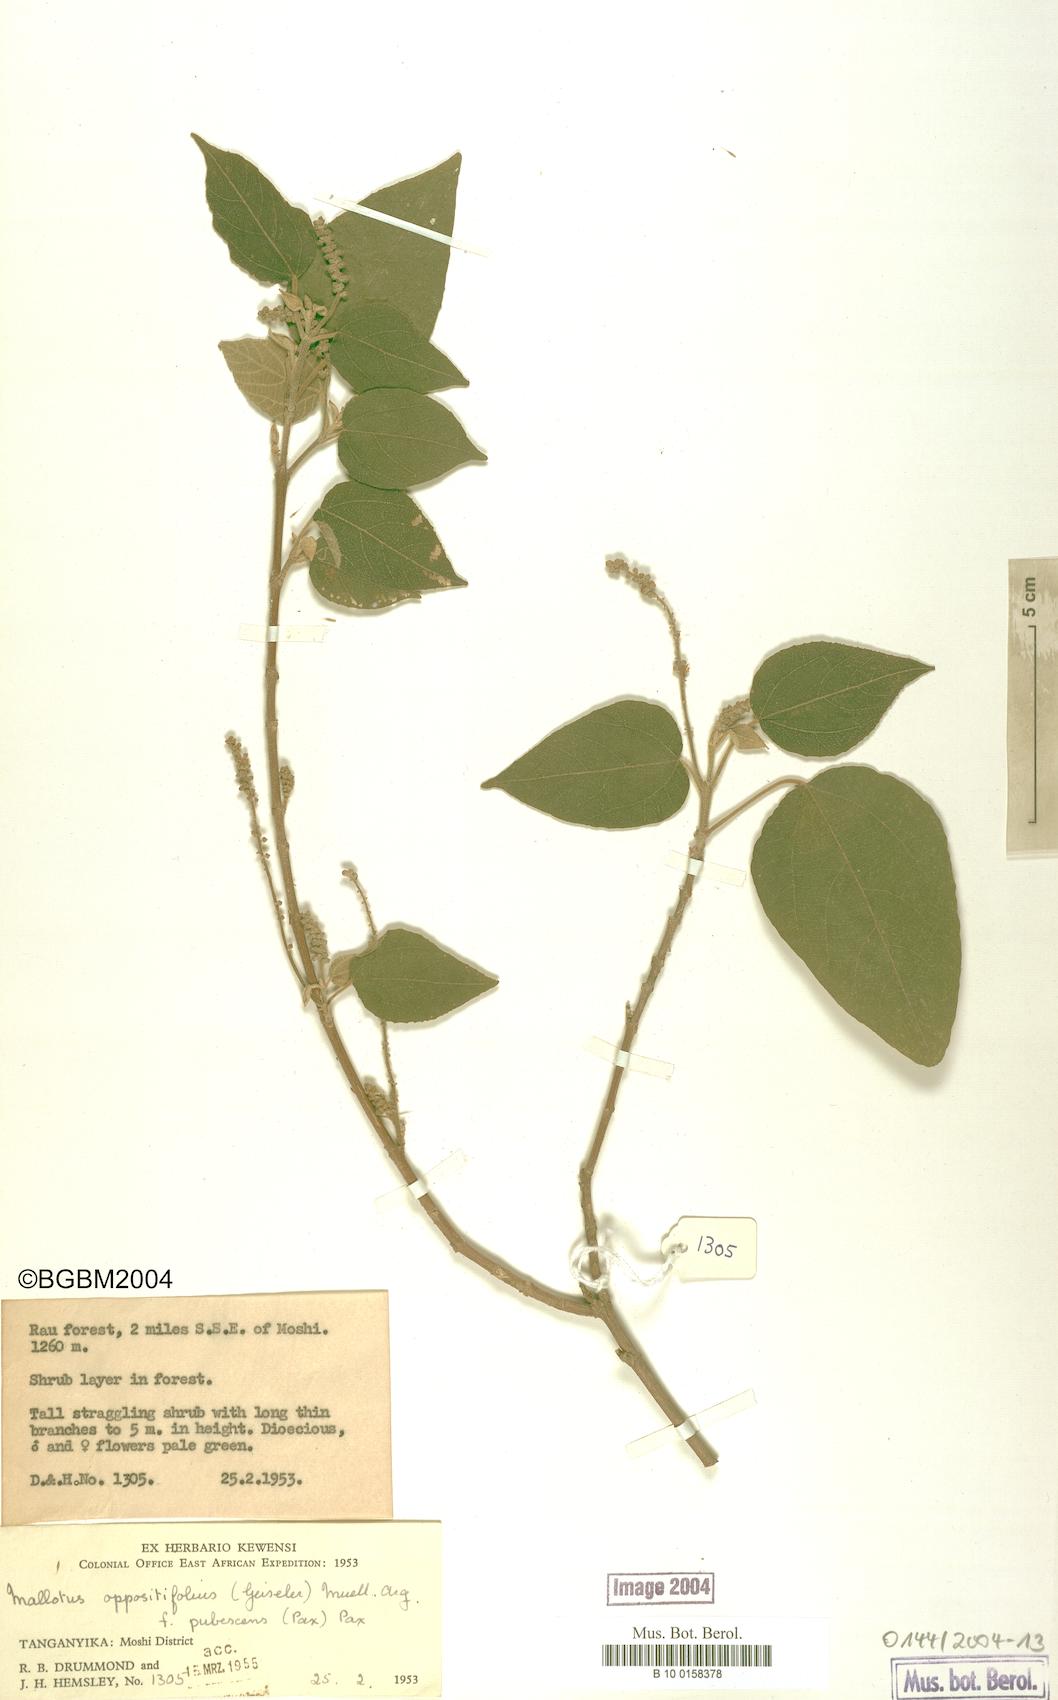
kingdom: Plantae
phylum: Tracheophyta
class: Magnoliopsida
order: Malpighiales
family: Euphorbiaceae
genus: Mallotus
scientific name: Mallotus oppositifolius
